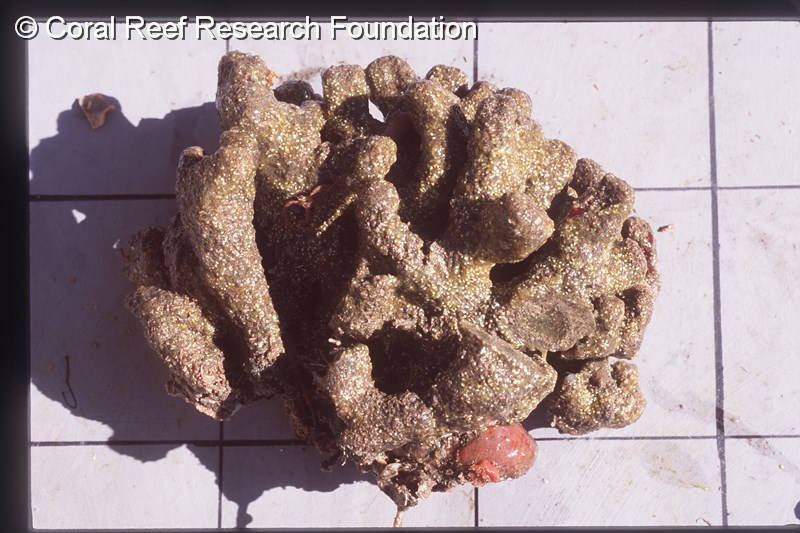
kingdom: Animalia
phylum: Chordata
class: Ascidiacea
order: Aplousobranchia
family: Clavelinidae
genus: Pycnoclavella
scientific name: Pycnoclavella inflorescens
